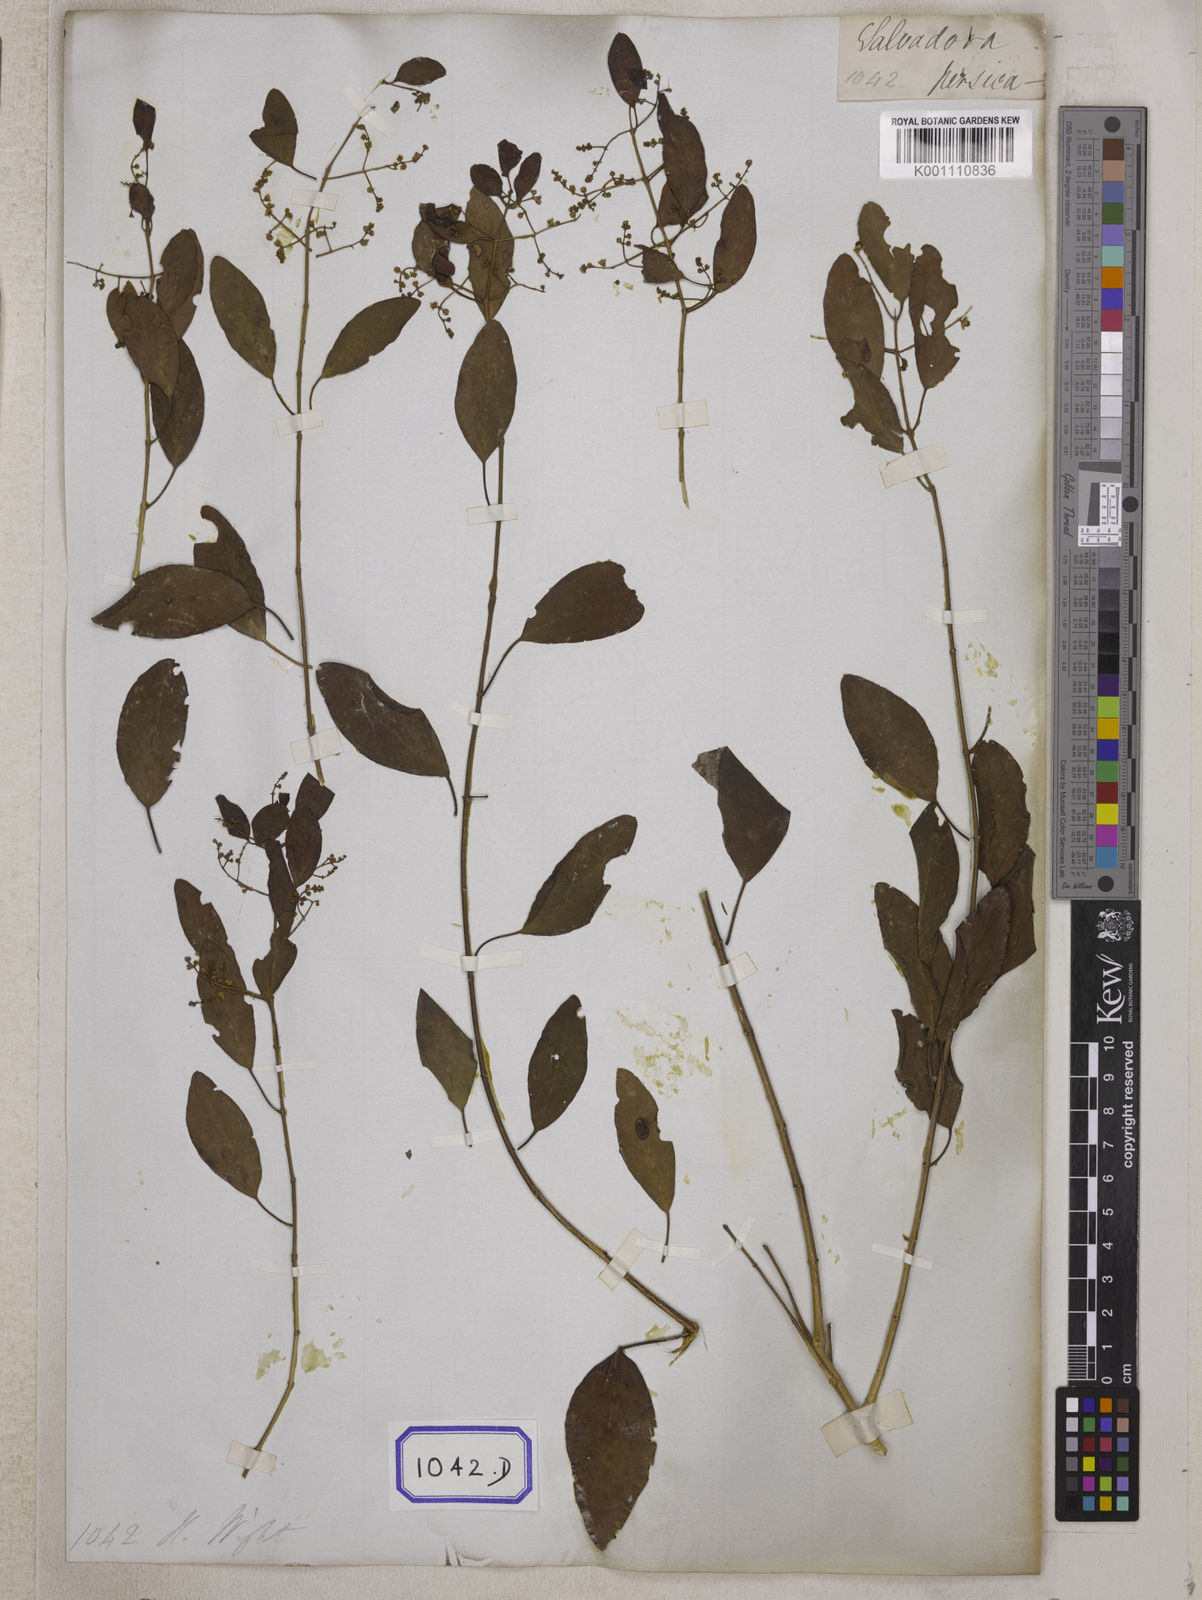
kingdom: Plantae
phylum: Tracheophyta
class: Magnoliopsida
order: Brassicales
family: Salvadoraceae
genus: Salvadora
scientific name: Salvadora persica
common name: Toothbrushtree
